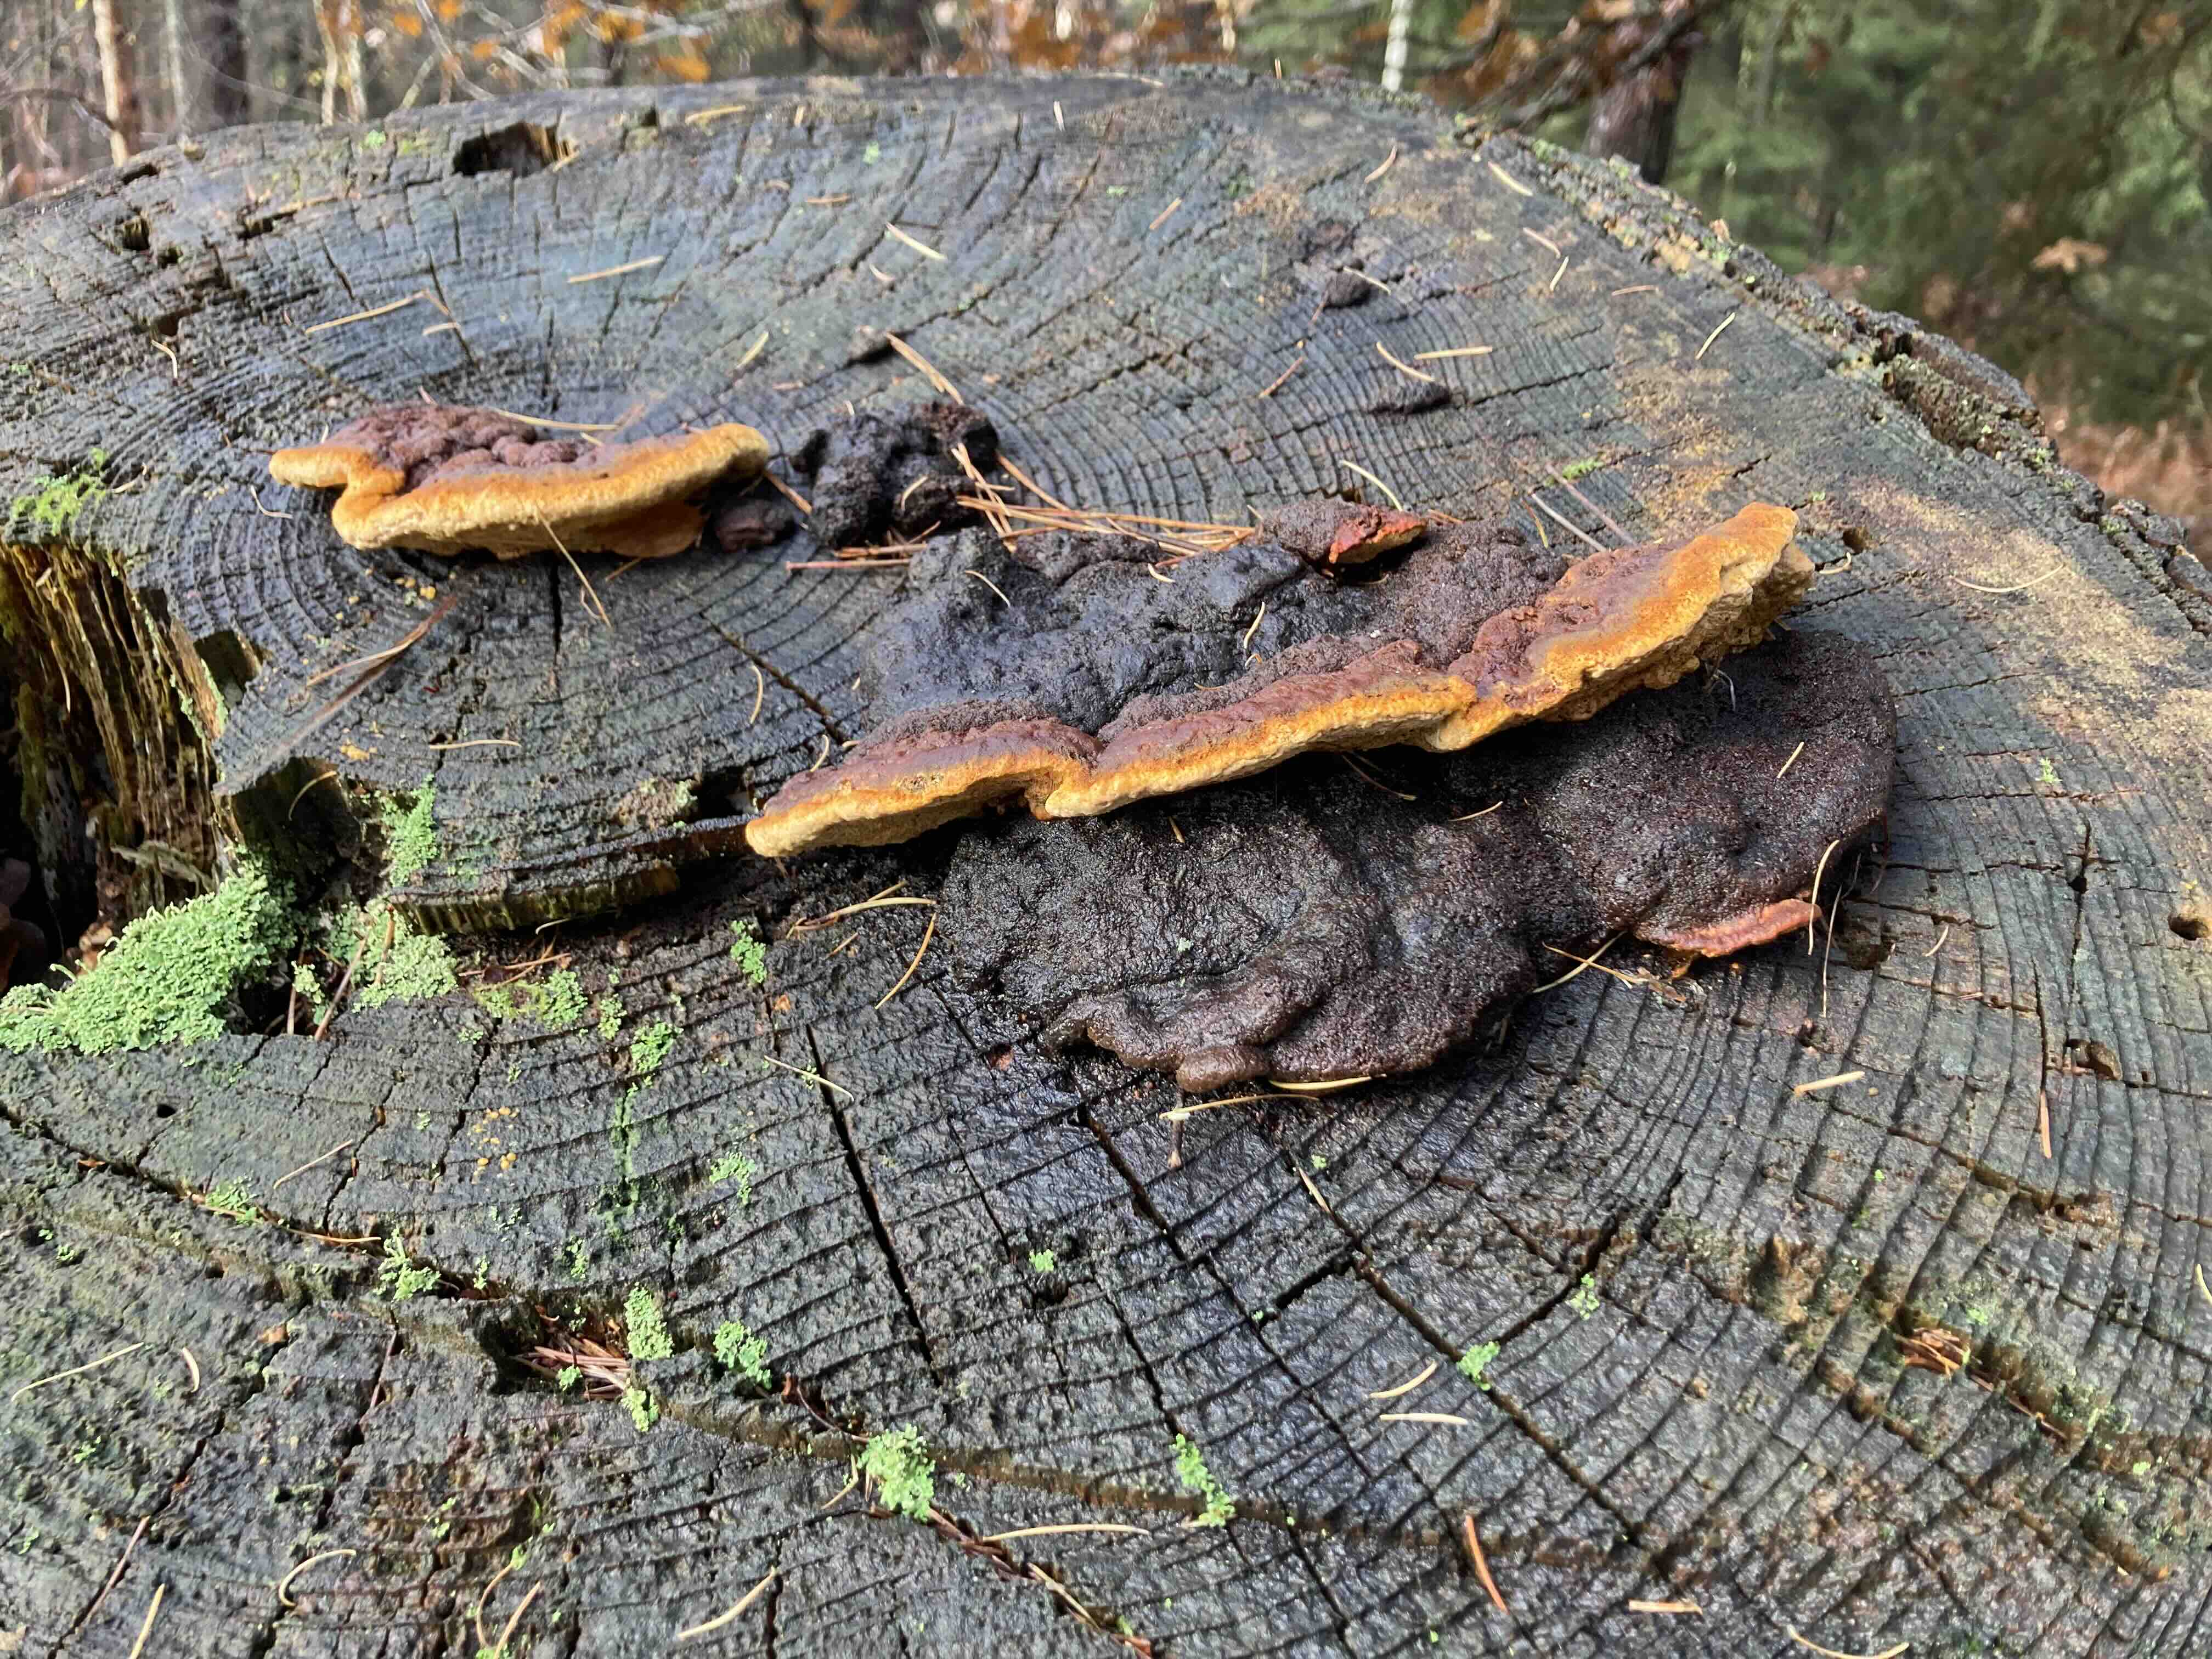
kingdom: Fungi
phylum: Basidiomycota
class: Agaricomycetes
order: Gloeophyllales
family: Gloeophyllaceae
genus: Gloeophyllum
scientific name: Gloeophyllum odoratum
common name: duftende korkhat
